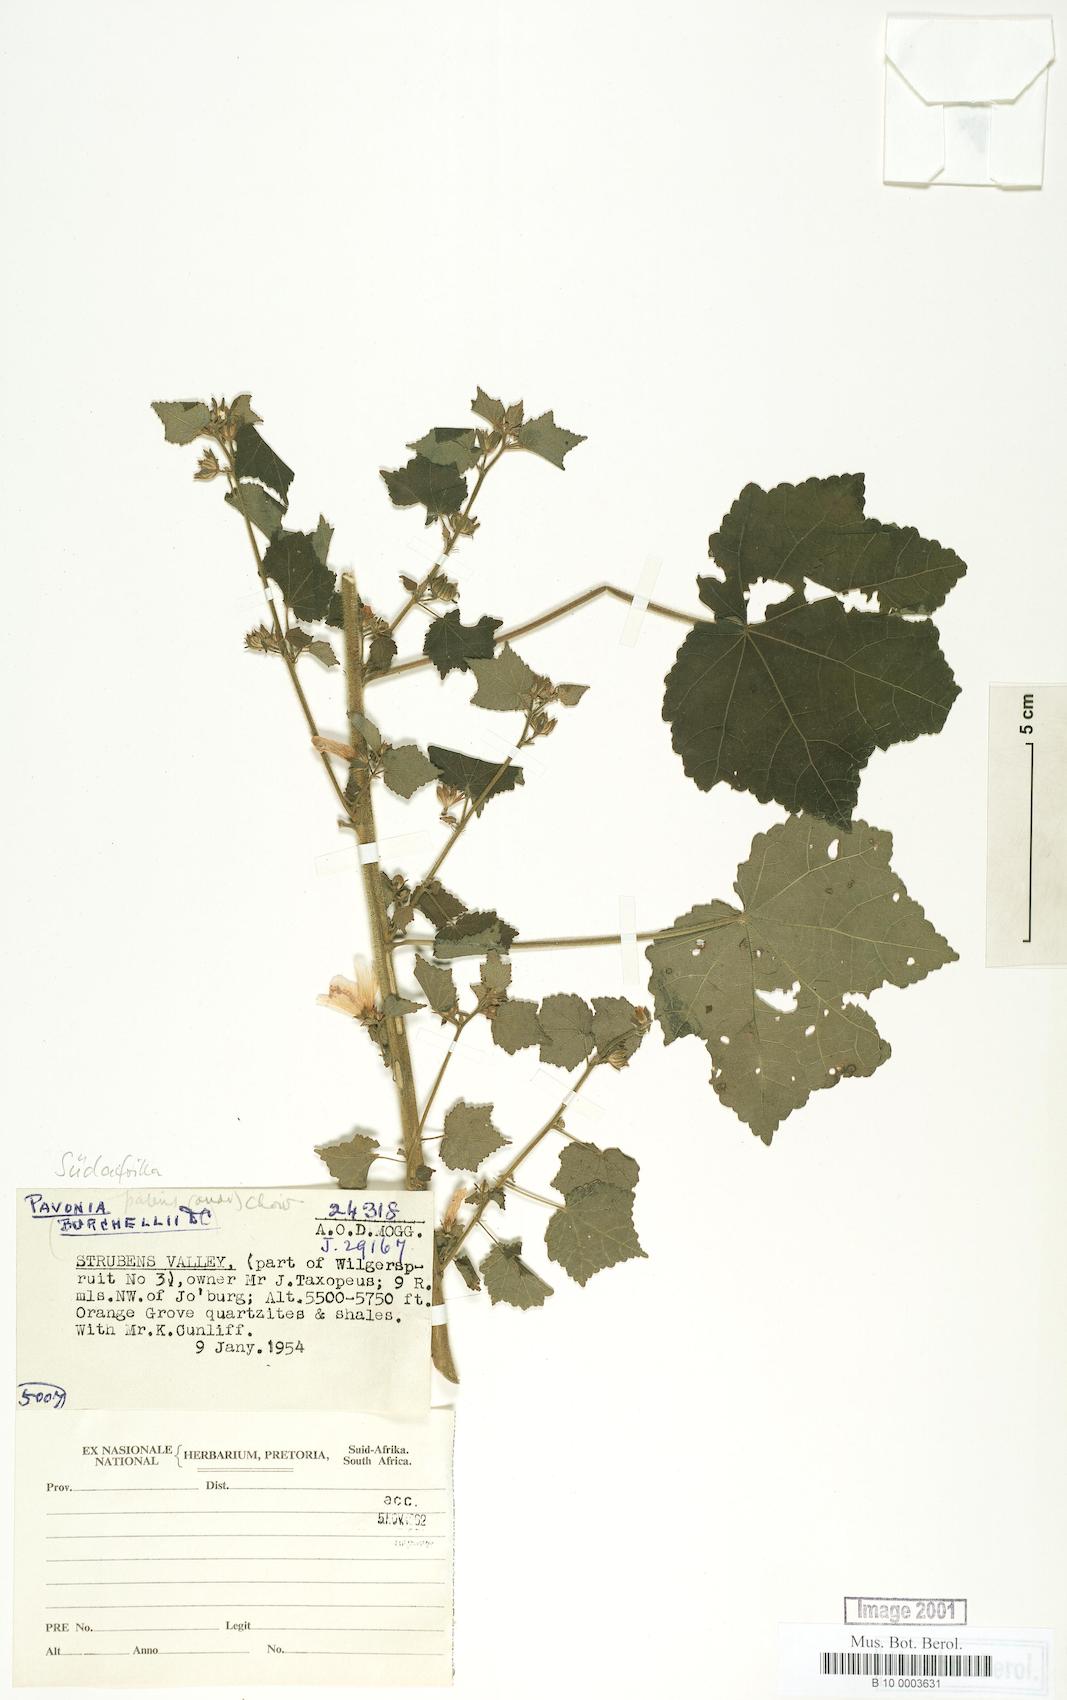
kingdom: Plantae
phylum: Tracheophyta
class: Magnoliopsida
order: Malvales
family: Malvaceae
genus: Pavonia
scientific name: Pavonia burchellii
